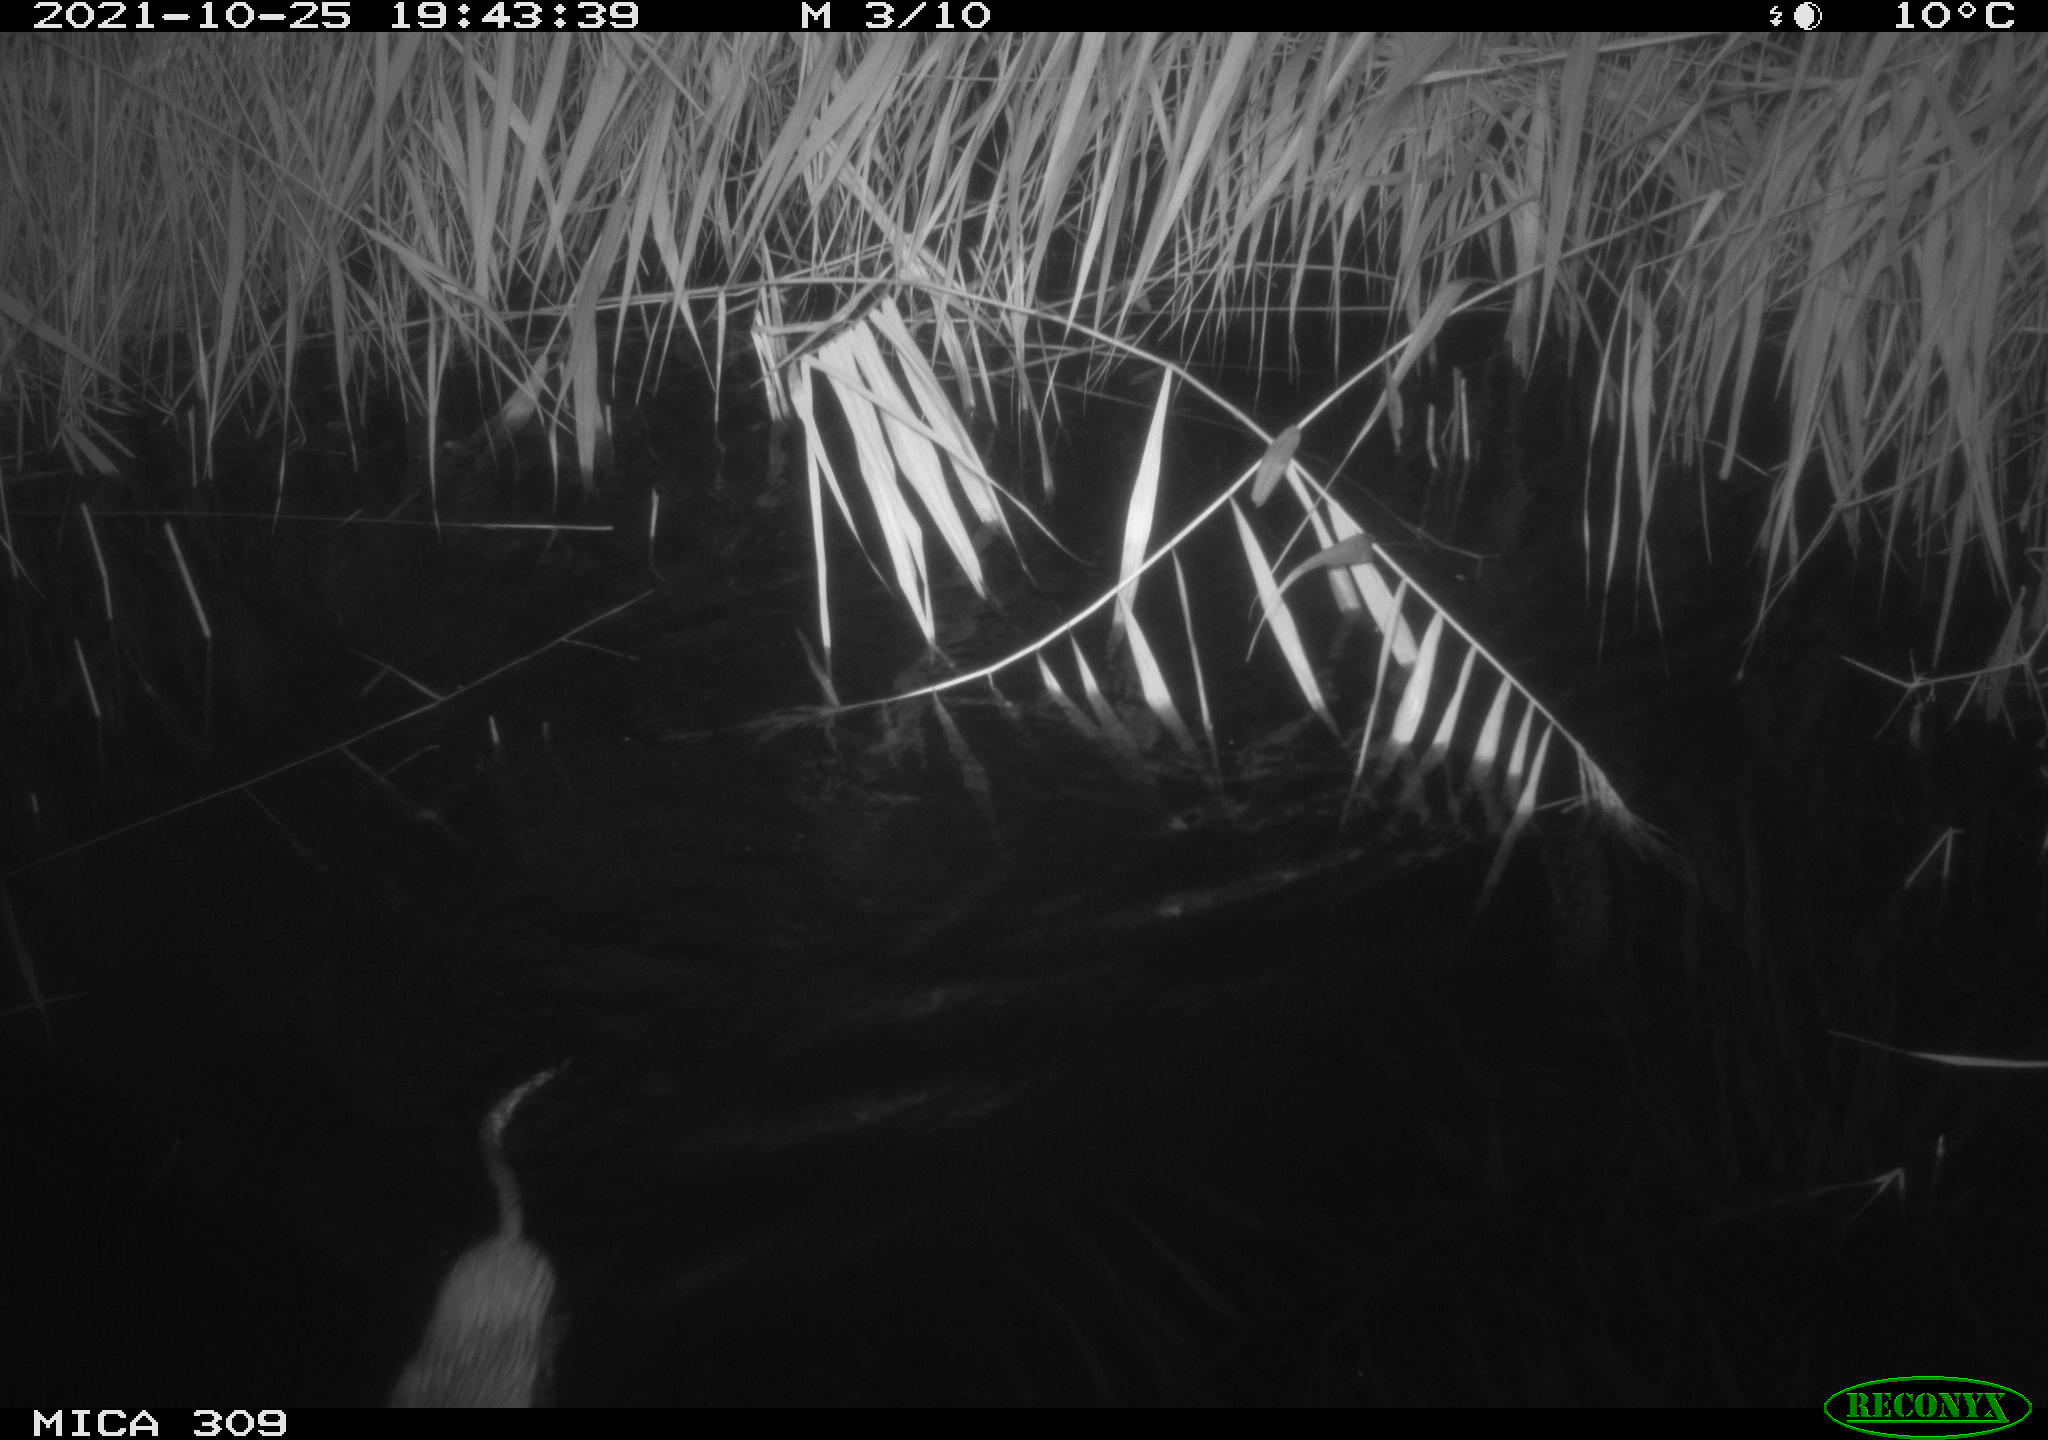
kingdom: Animalia
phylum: Chordata
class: Mammalia
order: Rodentia
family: Cricetidae
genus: Ondatra
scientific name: Ondatra zibethicus
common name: Muskrat
